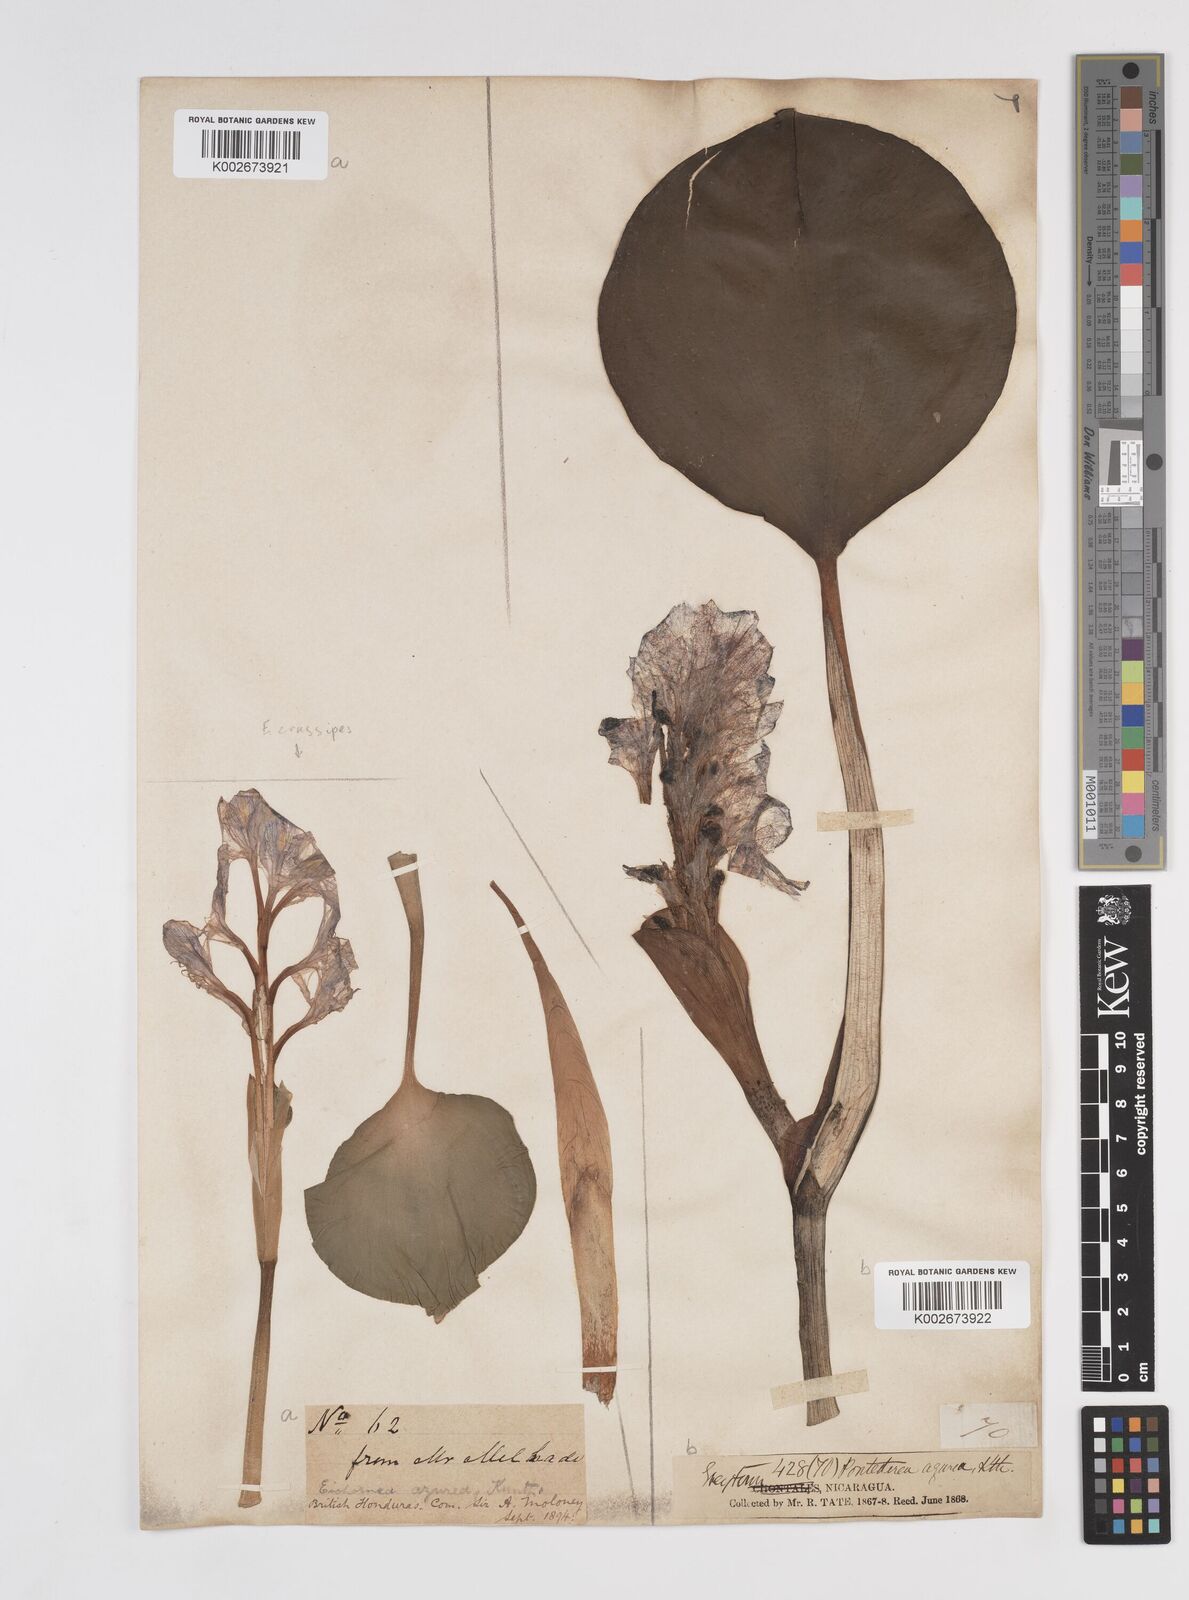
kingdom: Plantae
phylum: Tracheophyta
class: Liliopsida
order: Commelinales
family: Pontederiaceae
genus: Pontederia
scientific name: Pontederia azurea
